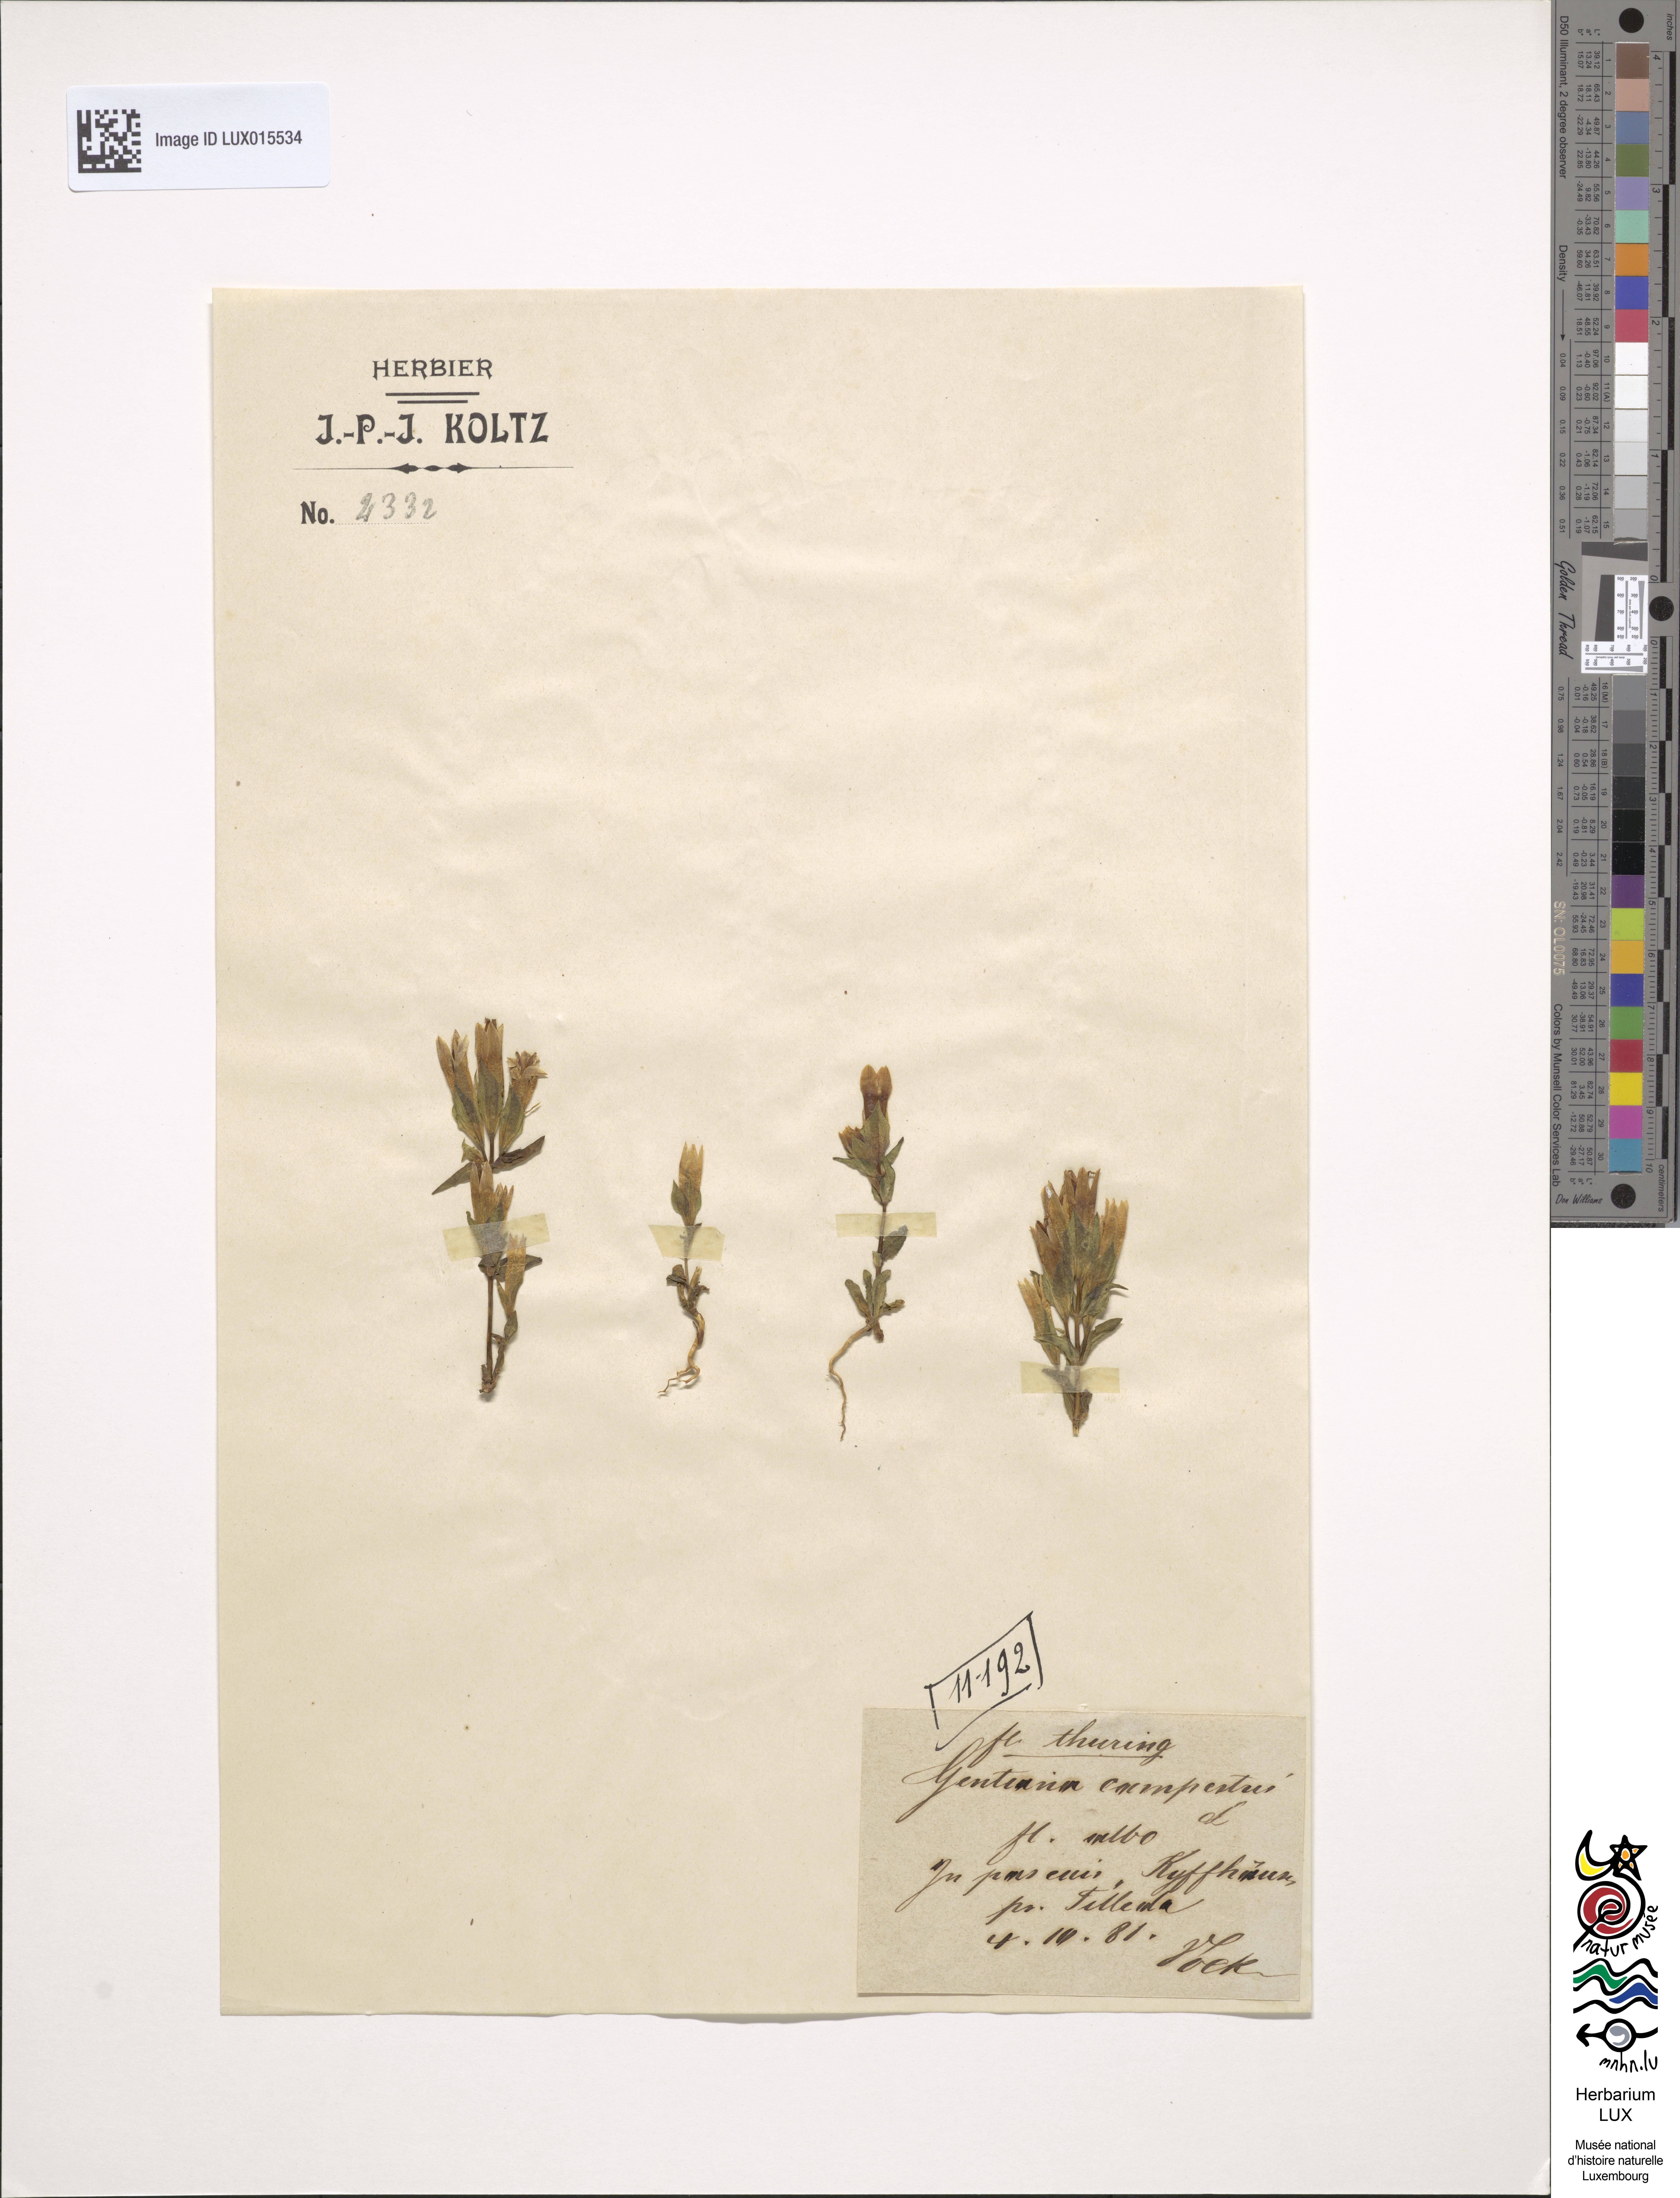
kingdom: Plantae
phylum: Tracheophyta
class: Magnoliopsida
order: Gentianales
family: Gentianaceae
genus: Gentianella
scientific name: Gentianella campestris
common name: Field gentian
